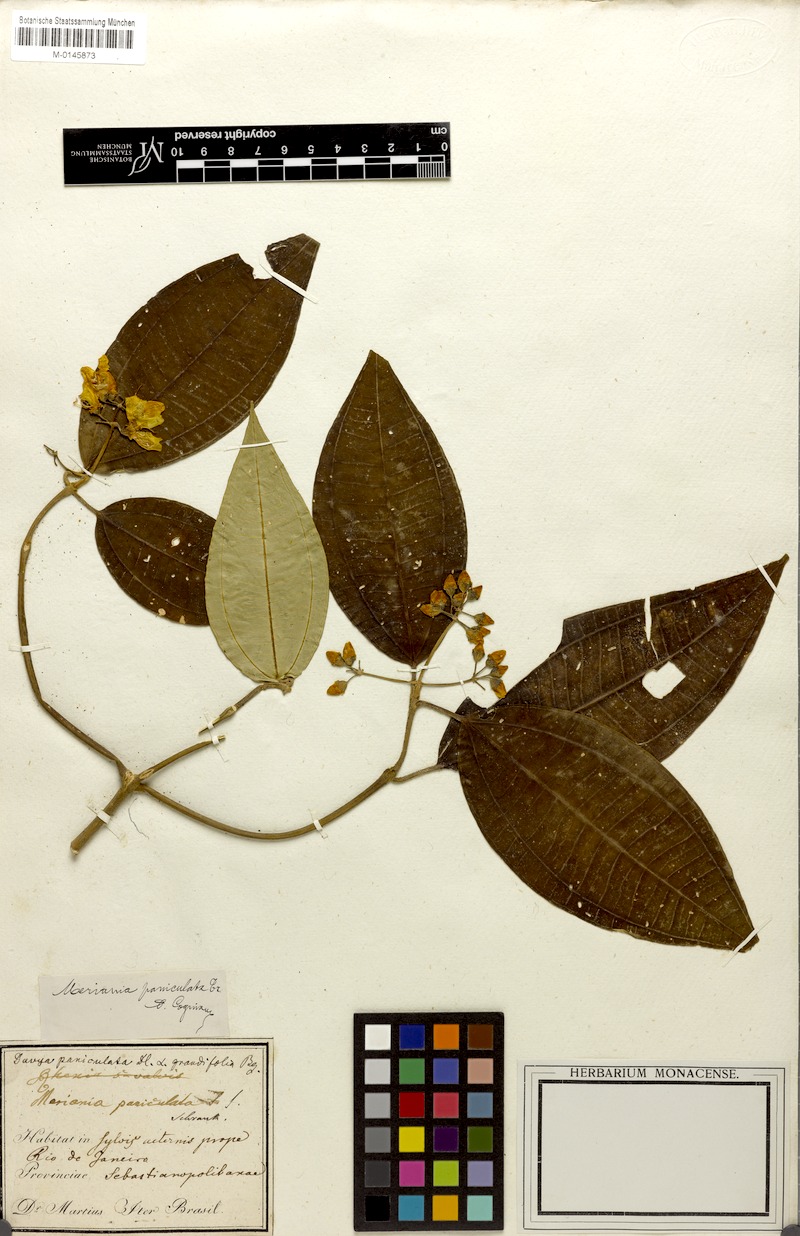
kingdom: Plantae
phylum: Tracheophyta
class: Magnoliopsida
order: Myrtales
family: Melastomataceae
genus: Meriania
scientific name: Meriania paniculata
